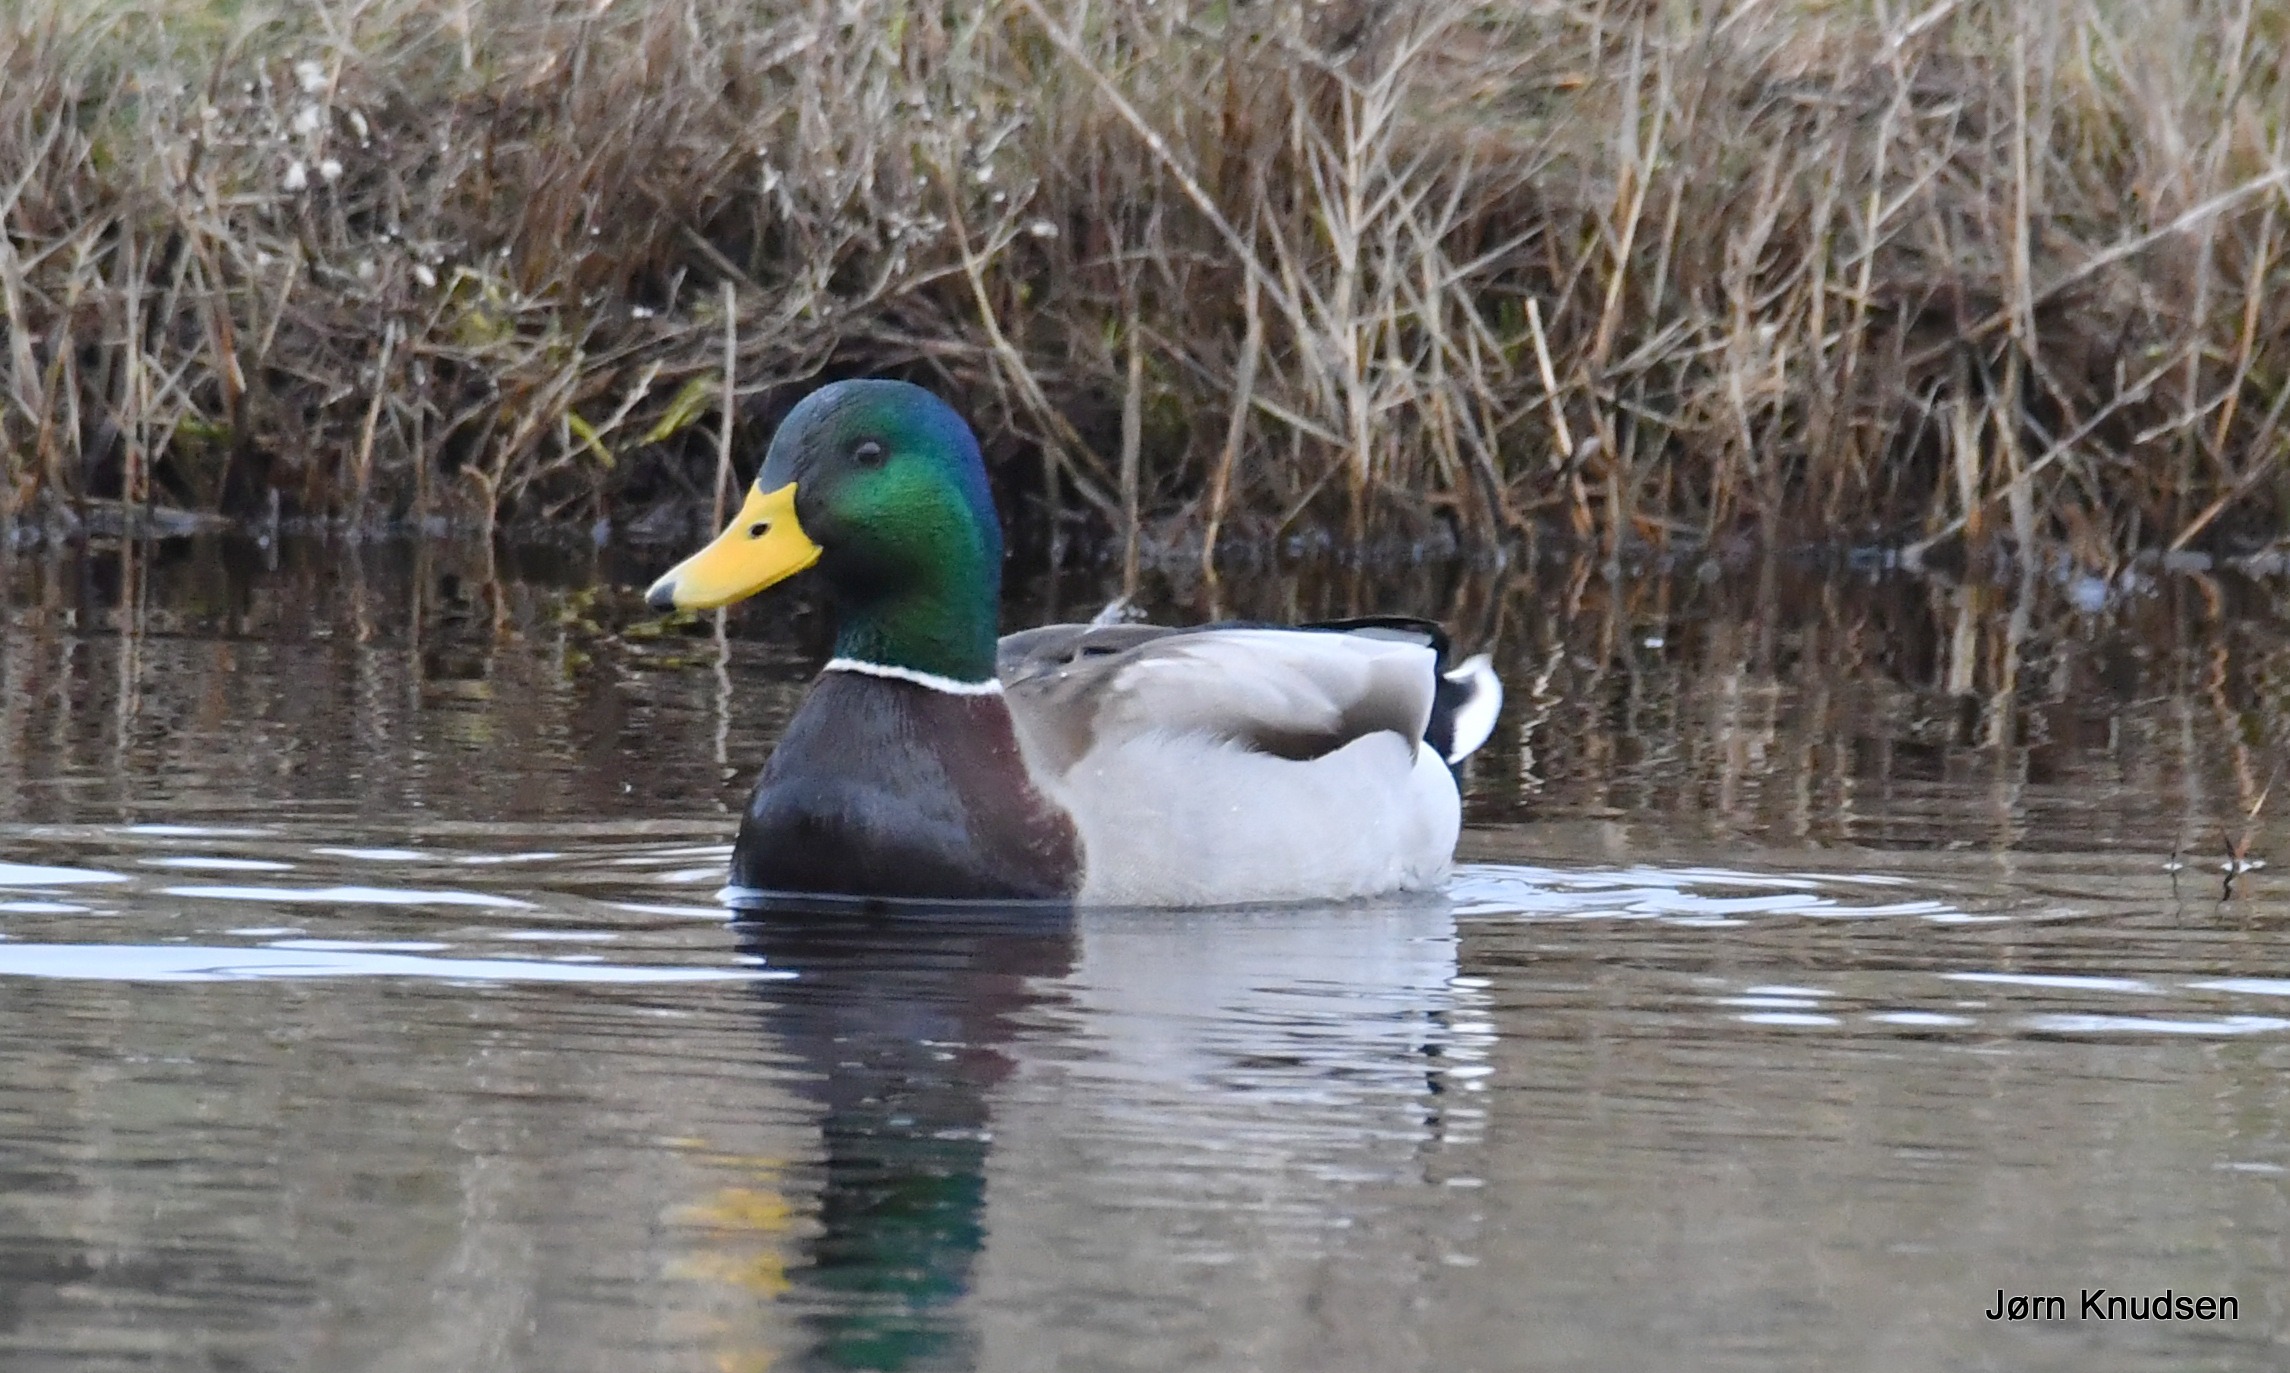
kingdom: Animalia
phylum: Chordata
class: Aves
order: Anseriformes
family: Anatidae
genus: Anas
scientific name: Anas platyrhynchos
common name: Gråand
